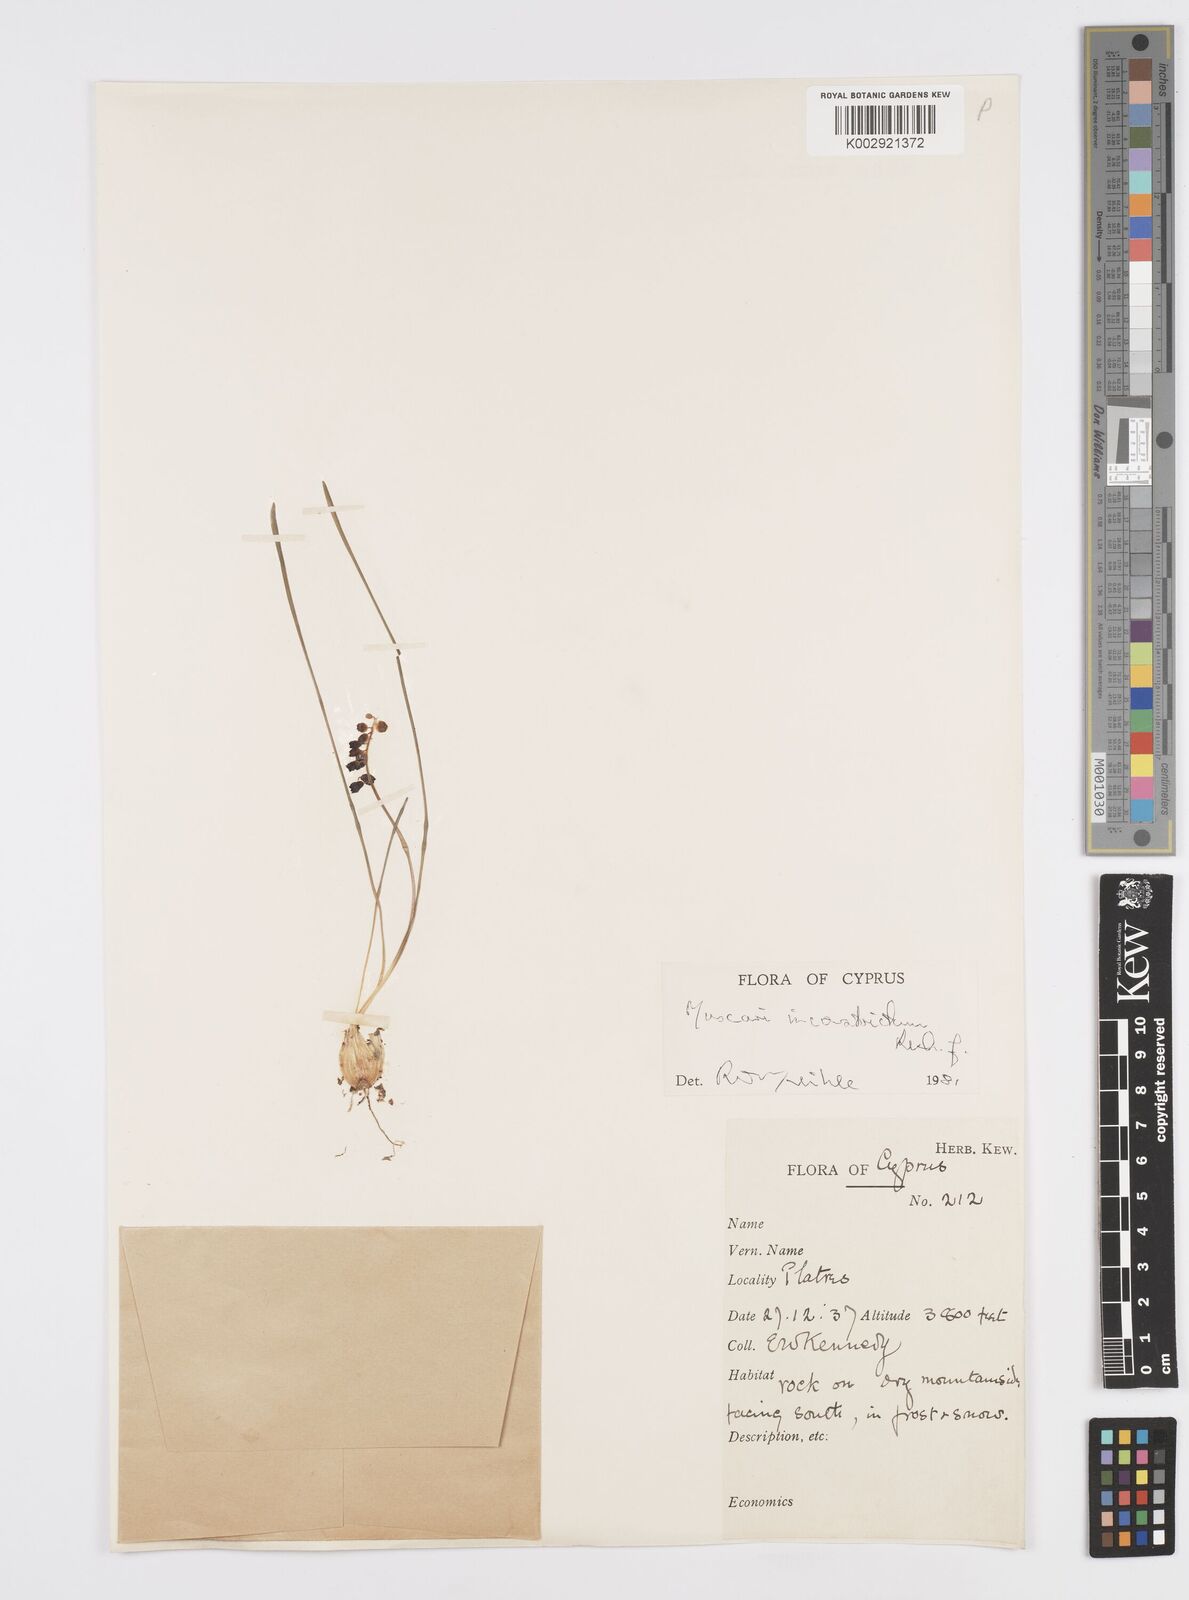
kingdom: Plantae
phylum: Tracheophyta
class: Liliopsida
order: Asparagales
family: Asparagaceae
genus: Muscari
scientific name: Muscari
